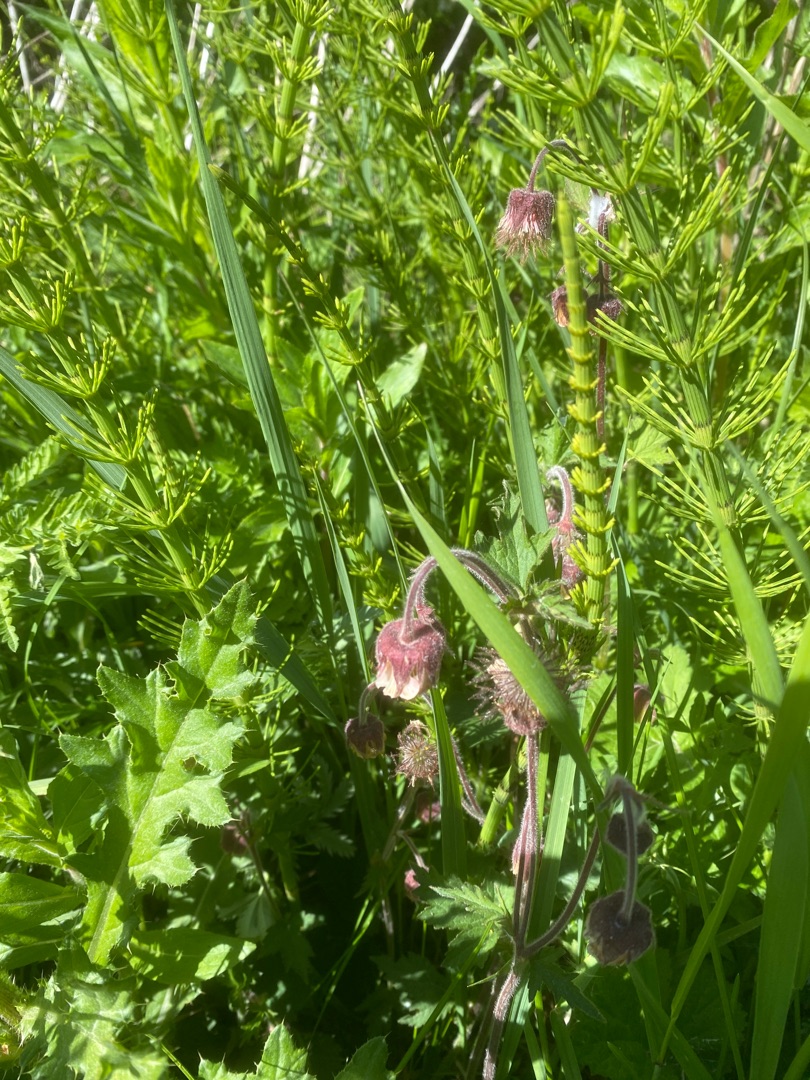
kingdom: Plantae
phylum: Tracheophyta
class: Magnoliopsida
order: Rosales
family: Rosaceae
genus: Geum
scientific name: Geum rivale
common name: Eng-nellikerod
